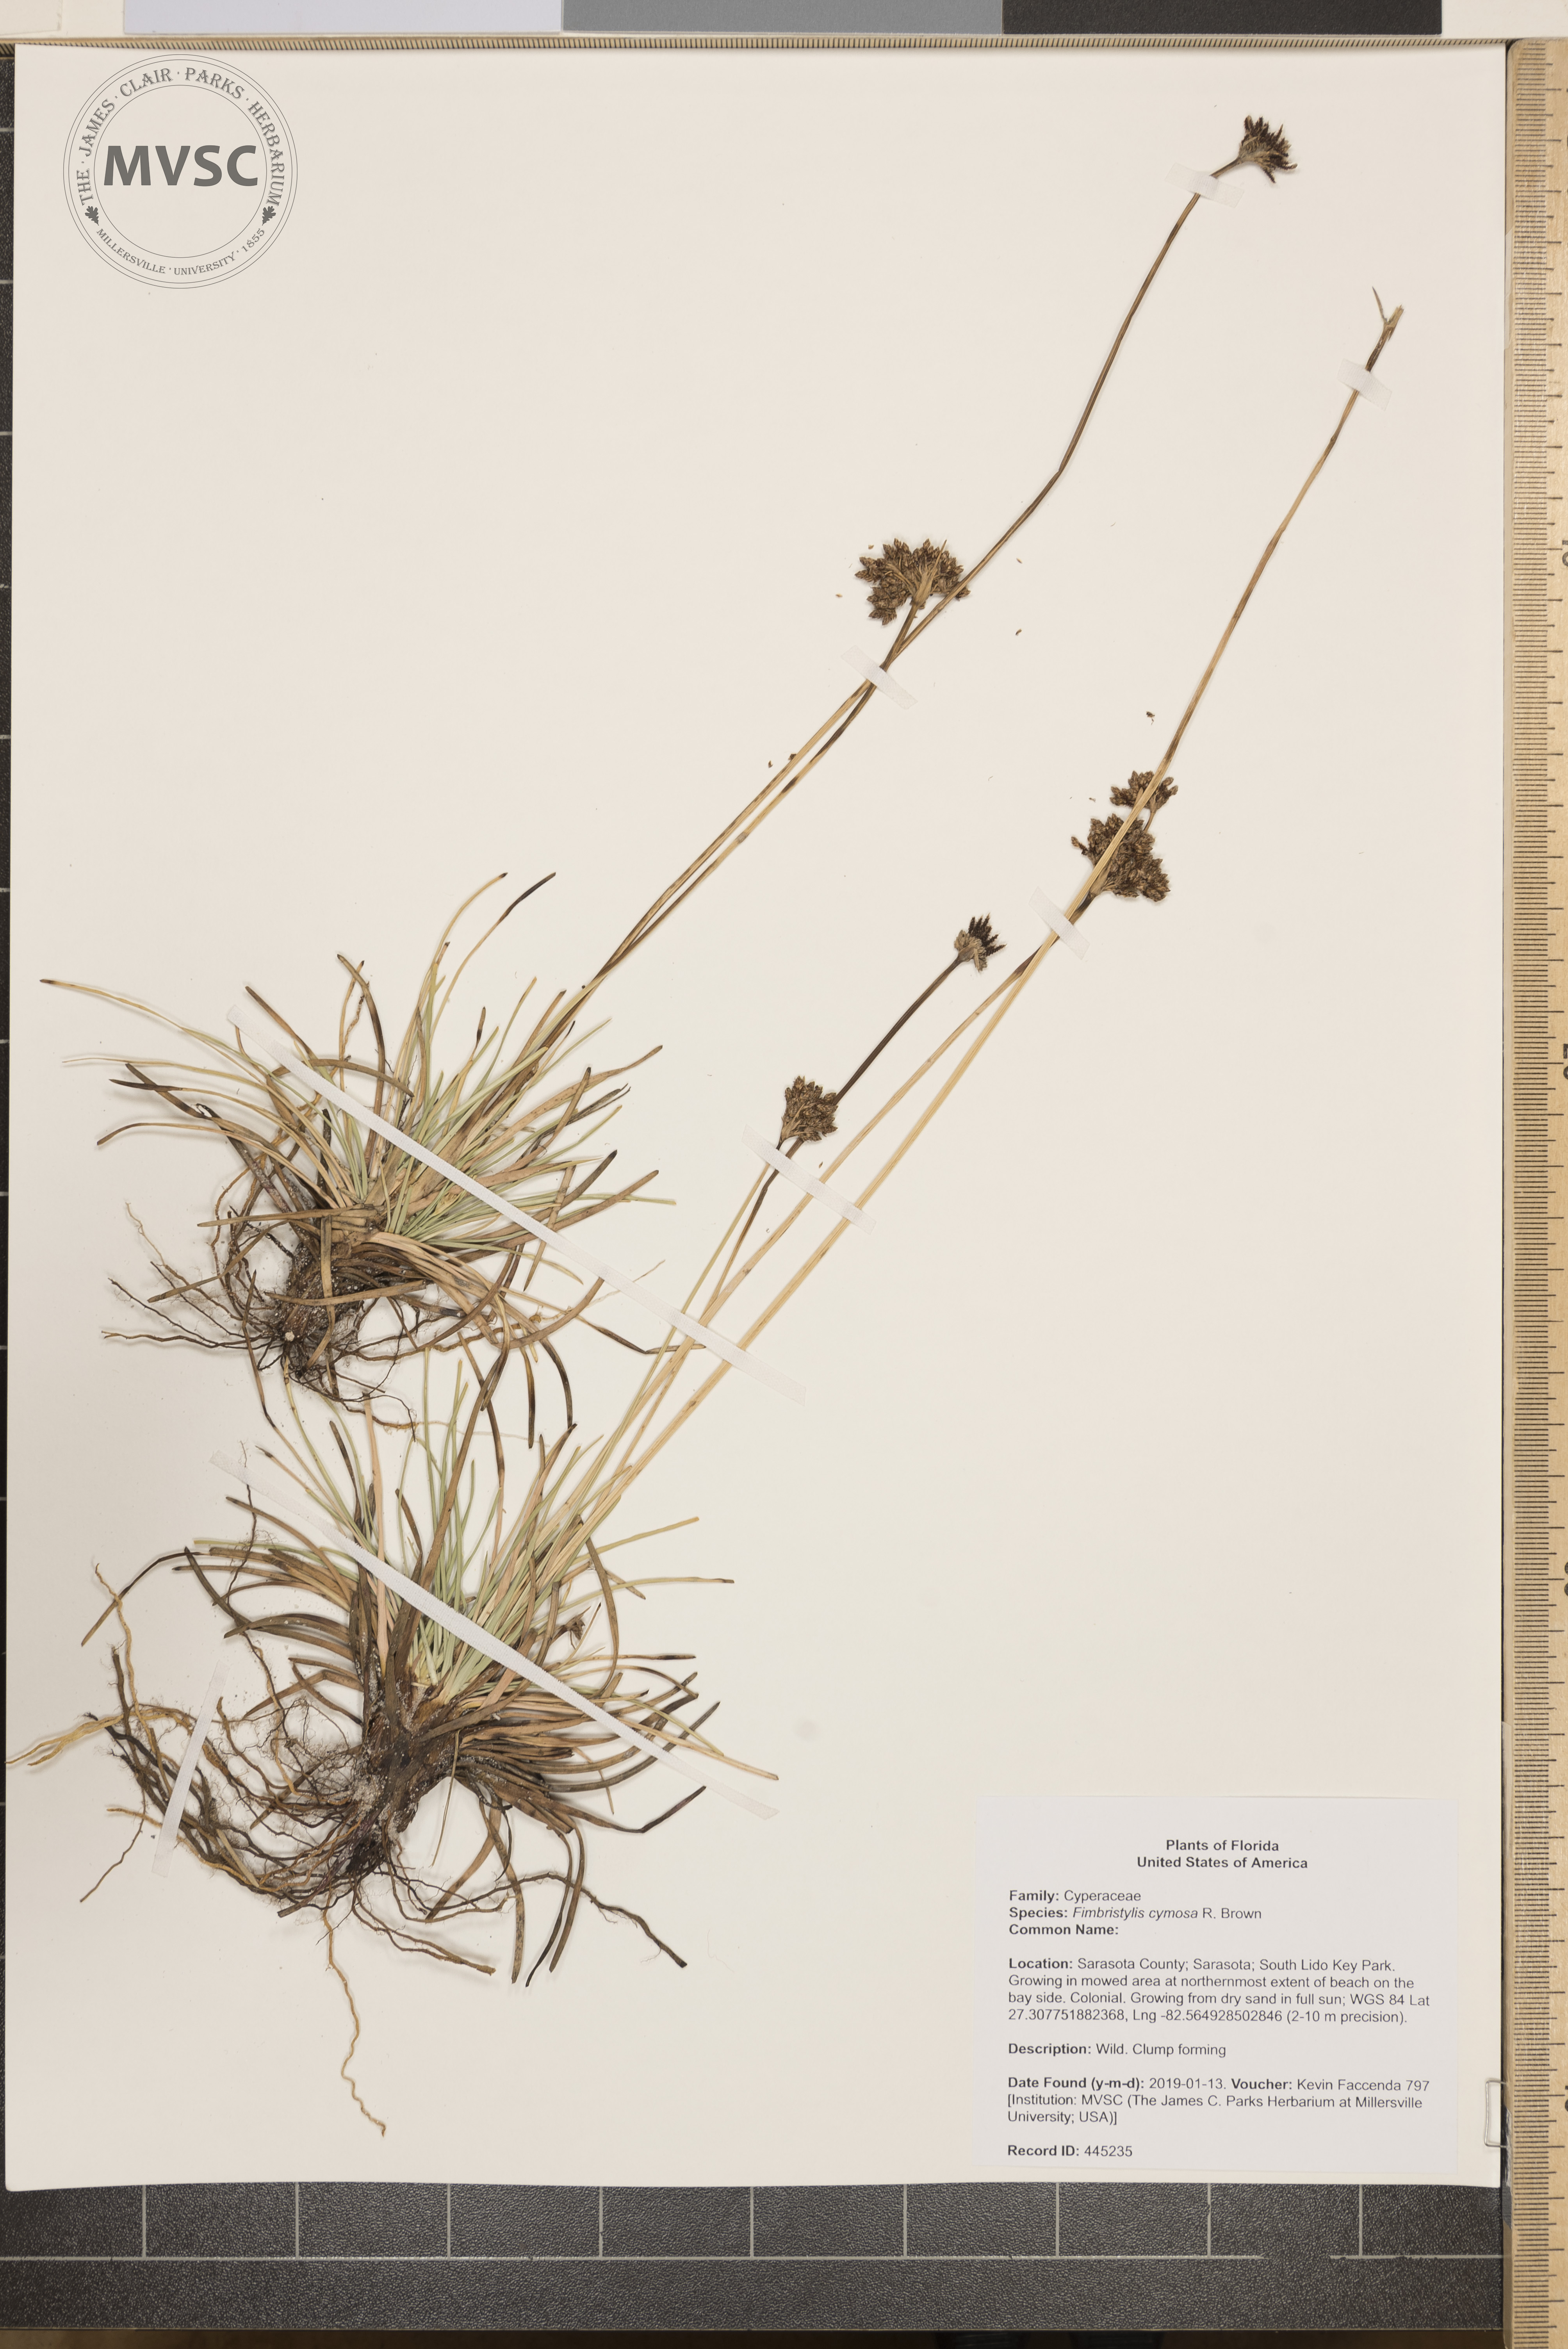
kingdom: Plantae
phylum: Tracheophyta
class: Liliopsida
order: Poales
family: Cyperaceae
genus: Fimbristylis
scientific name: Fimbristylis cymosa
